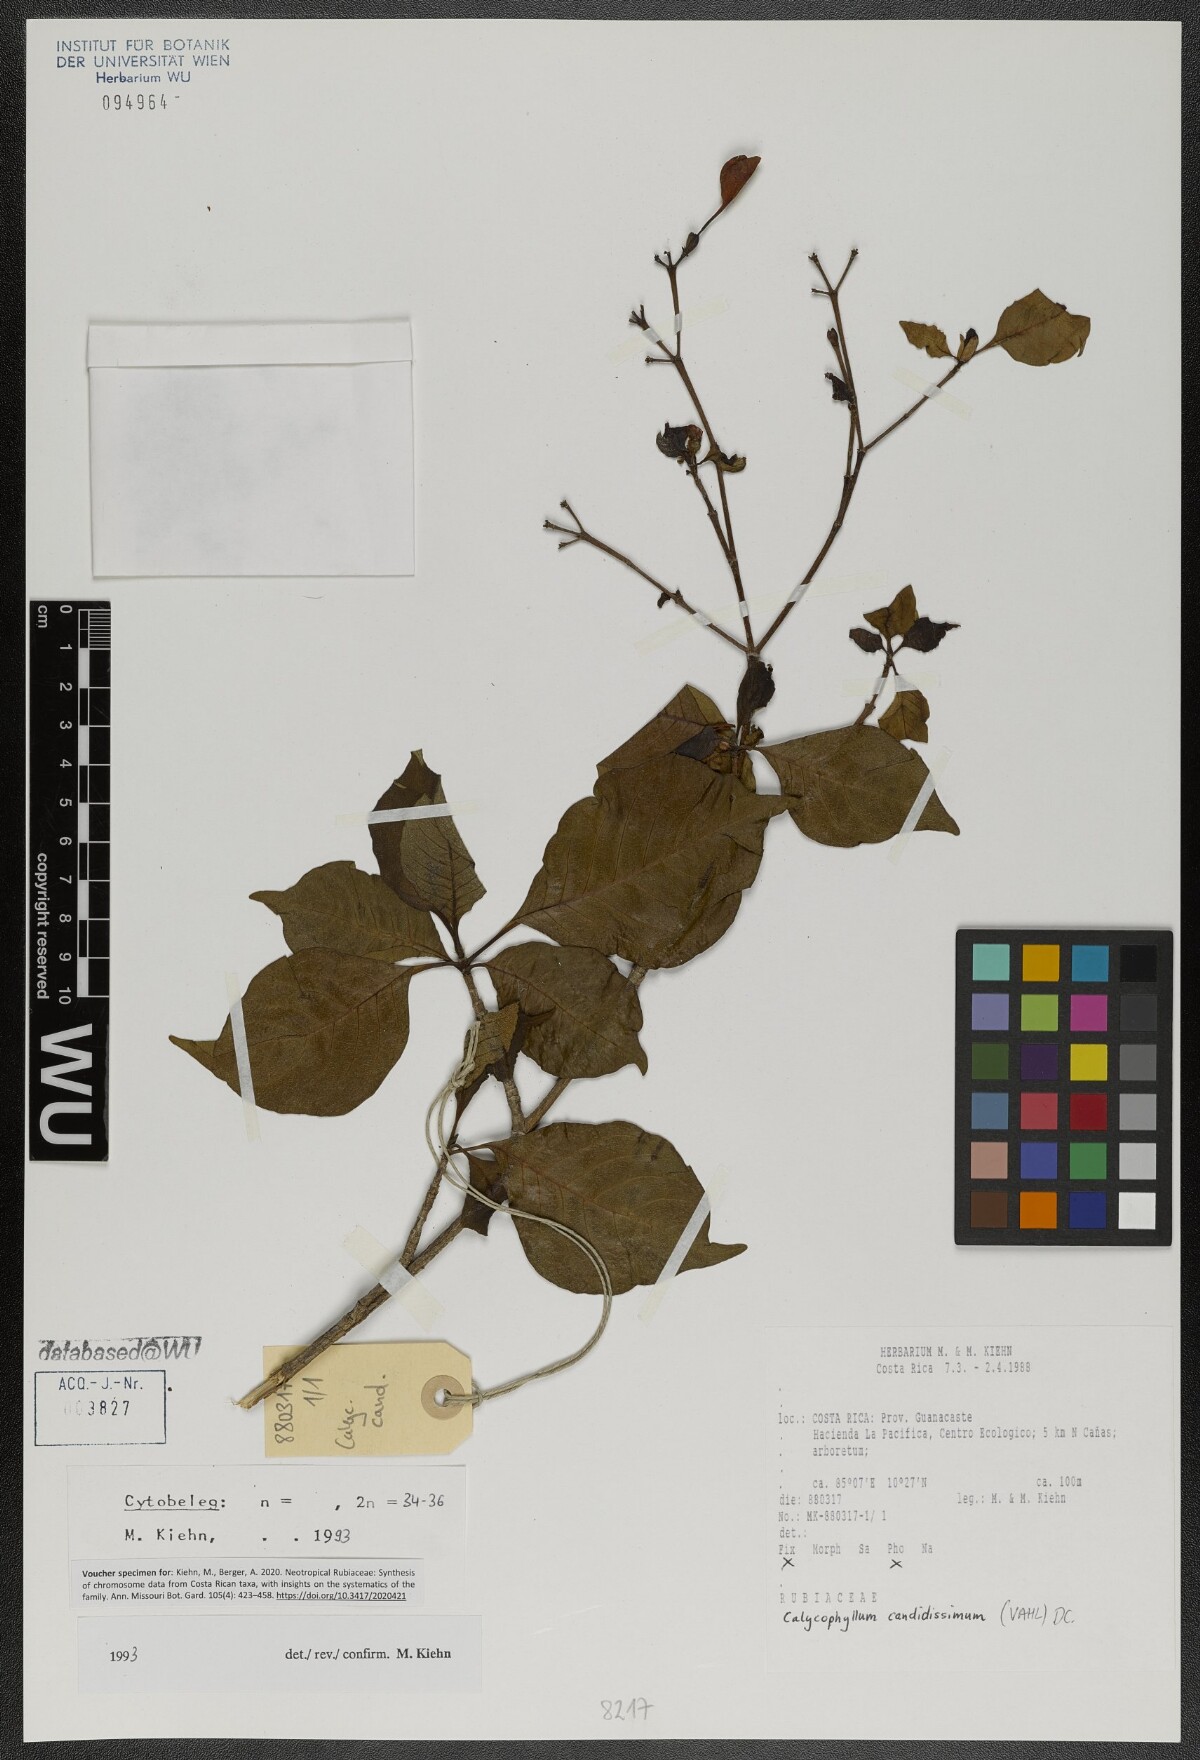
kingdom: Plantae
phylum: Tracheophyta
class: Magnoliopsida
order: Gentianales
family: Rubiaceae
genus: Calycophyllum
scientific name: Calycophyllum candidissimum
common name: Dagame
